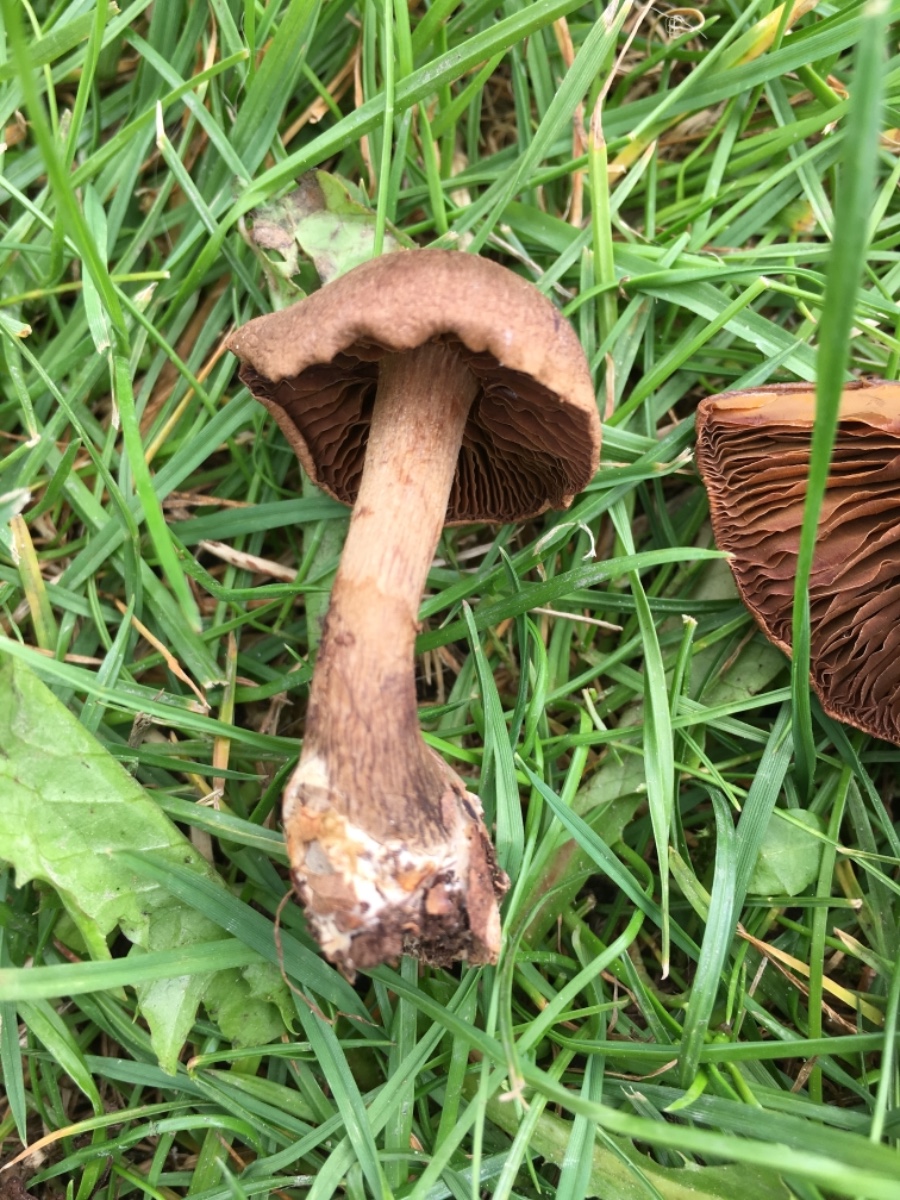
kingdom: Fungi
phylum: Basidiomycota
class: Agaricomycetes
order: Agaricales
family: Cortinariaceae
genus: Cortinarius
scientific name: Cortinarius anomalus
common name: Variable webcap
